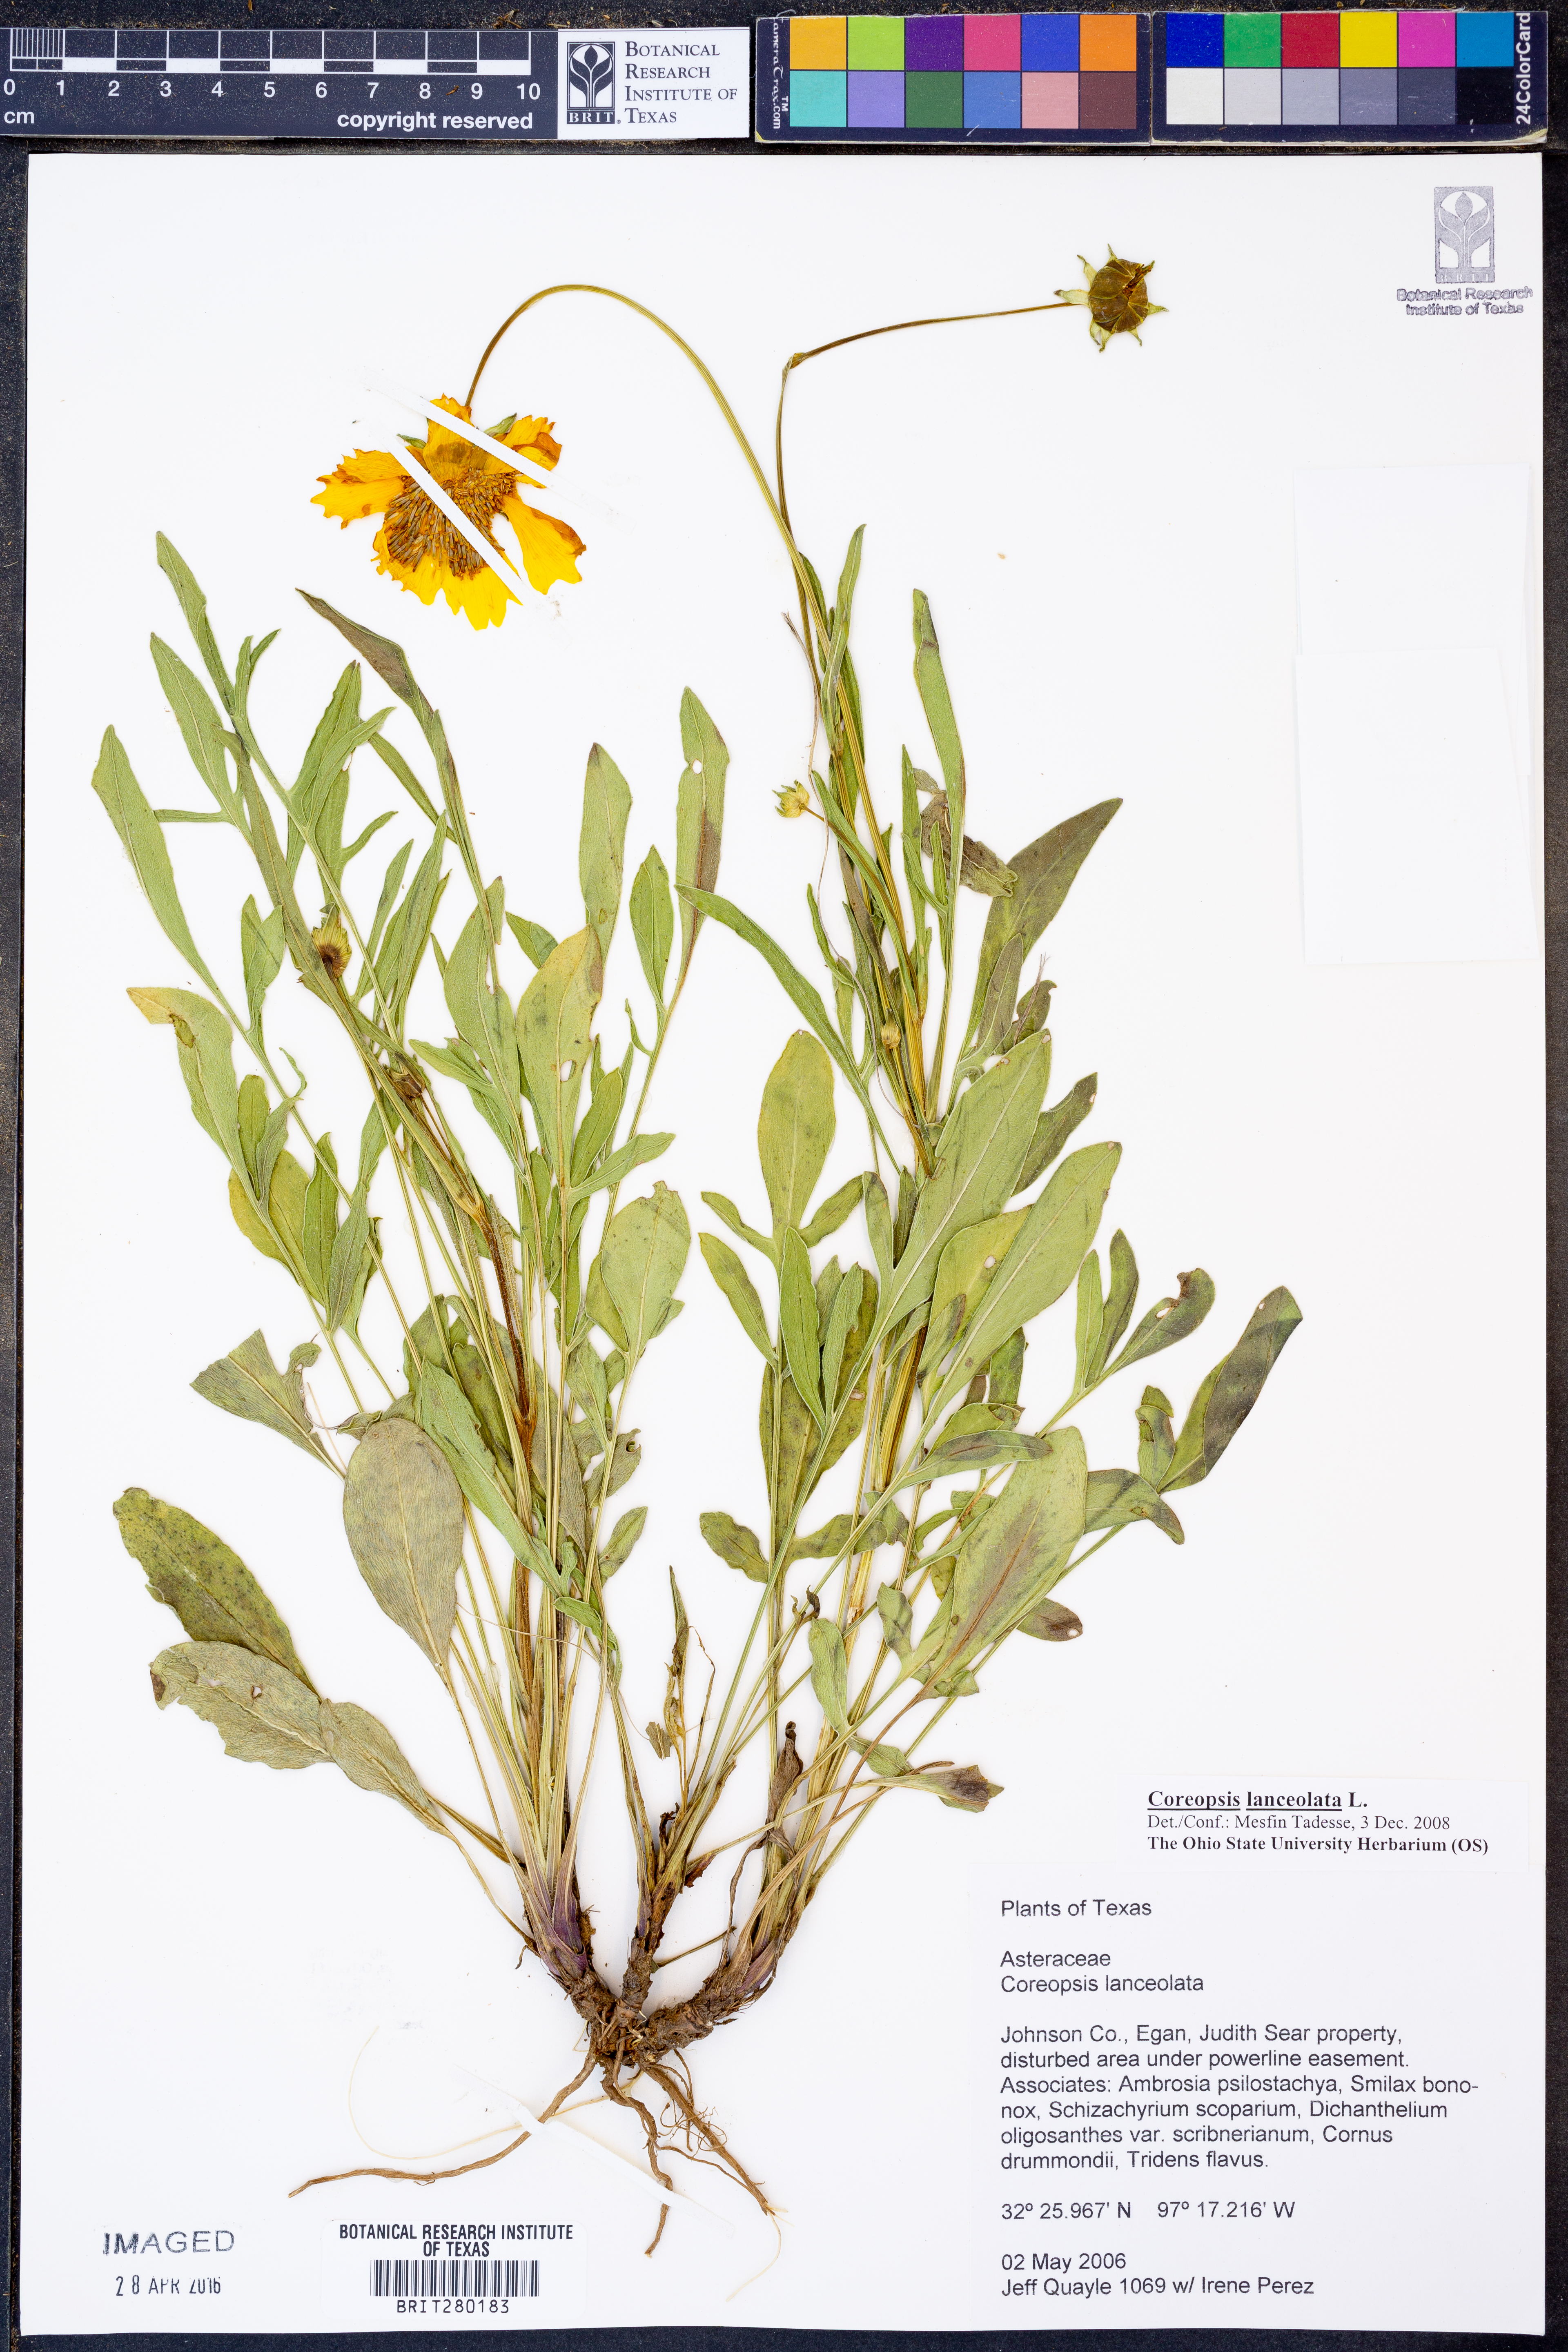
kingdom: Plantae
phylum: Tracheophyta
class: Magnoliopsida
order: Asterales
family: Asteraceae
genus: Coreopsis
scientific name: Coreopsis lanceolata
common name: Garden coreopsis
